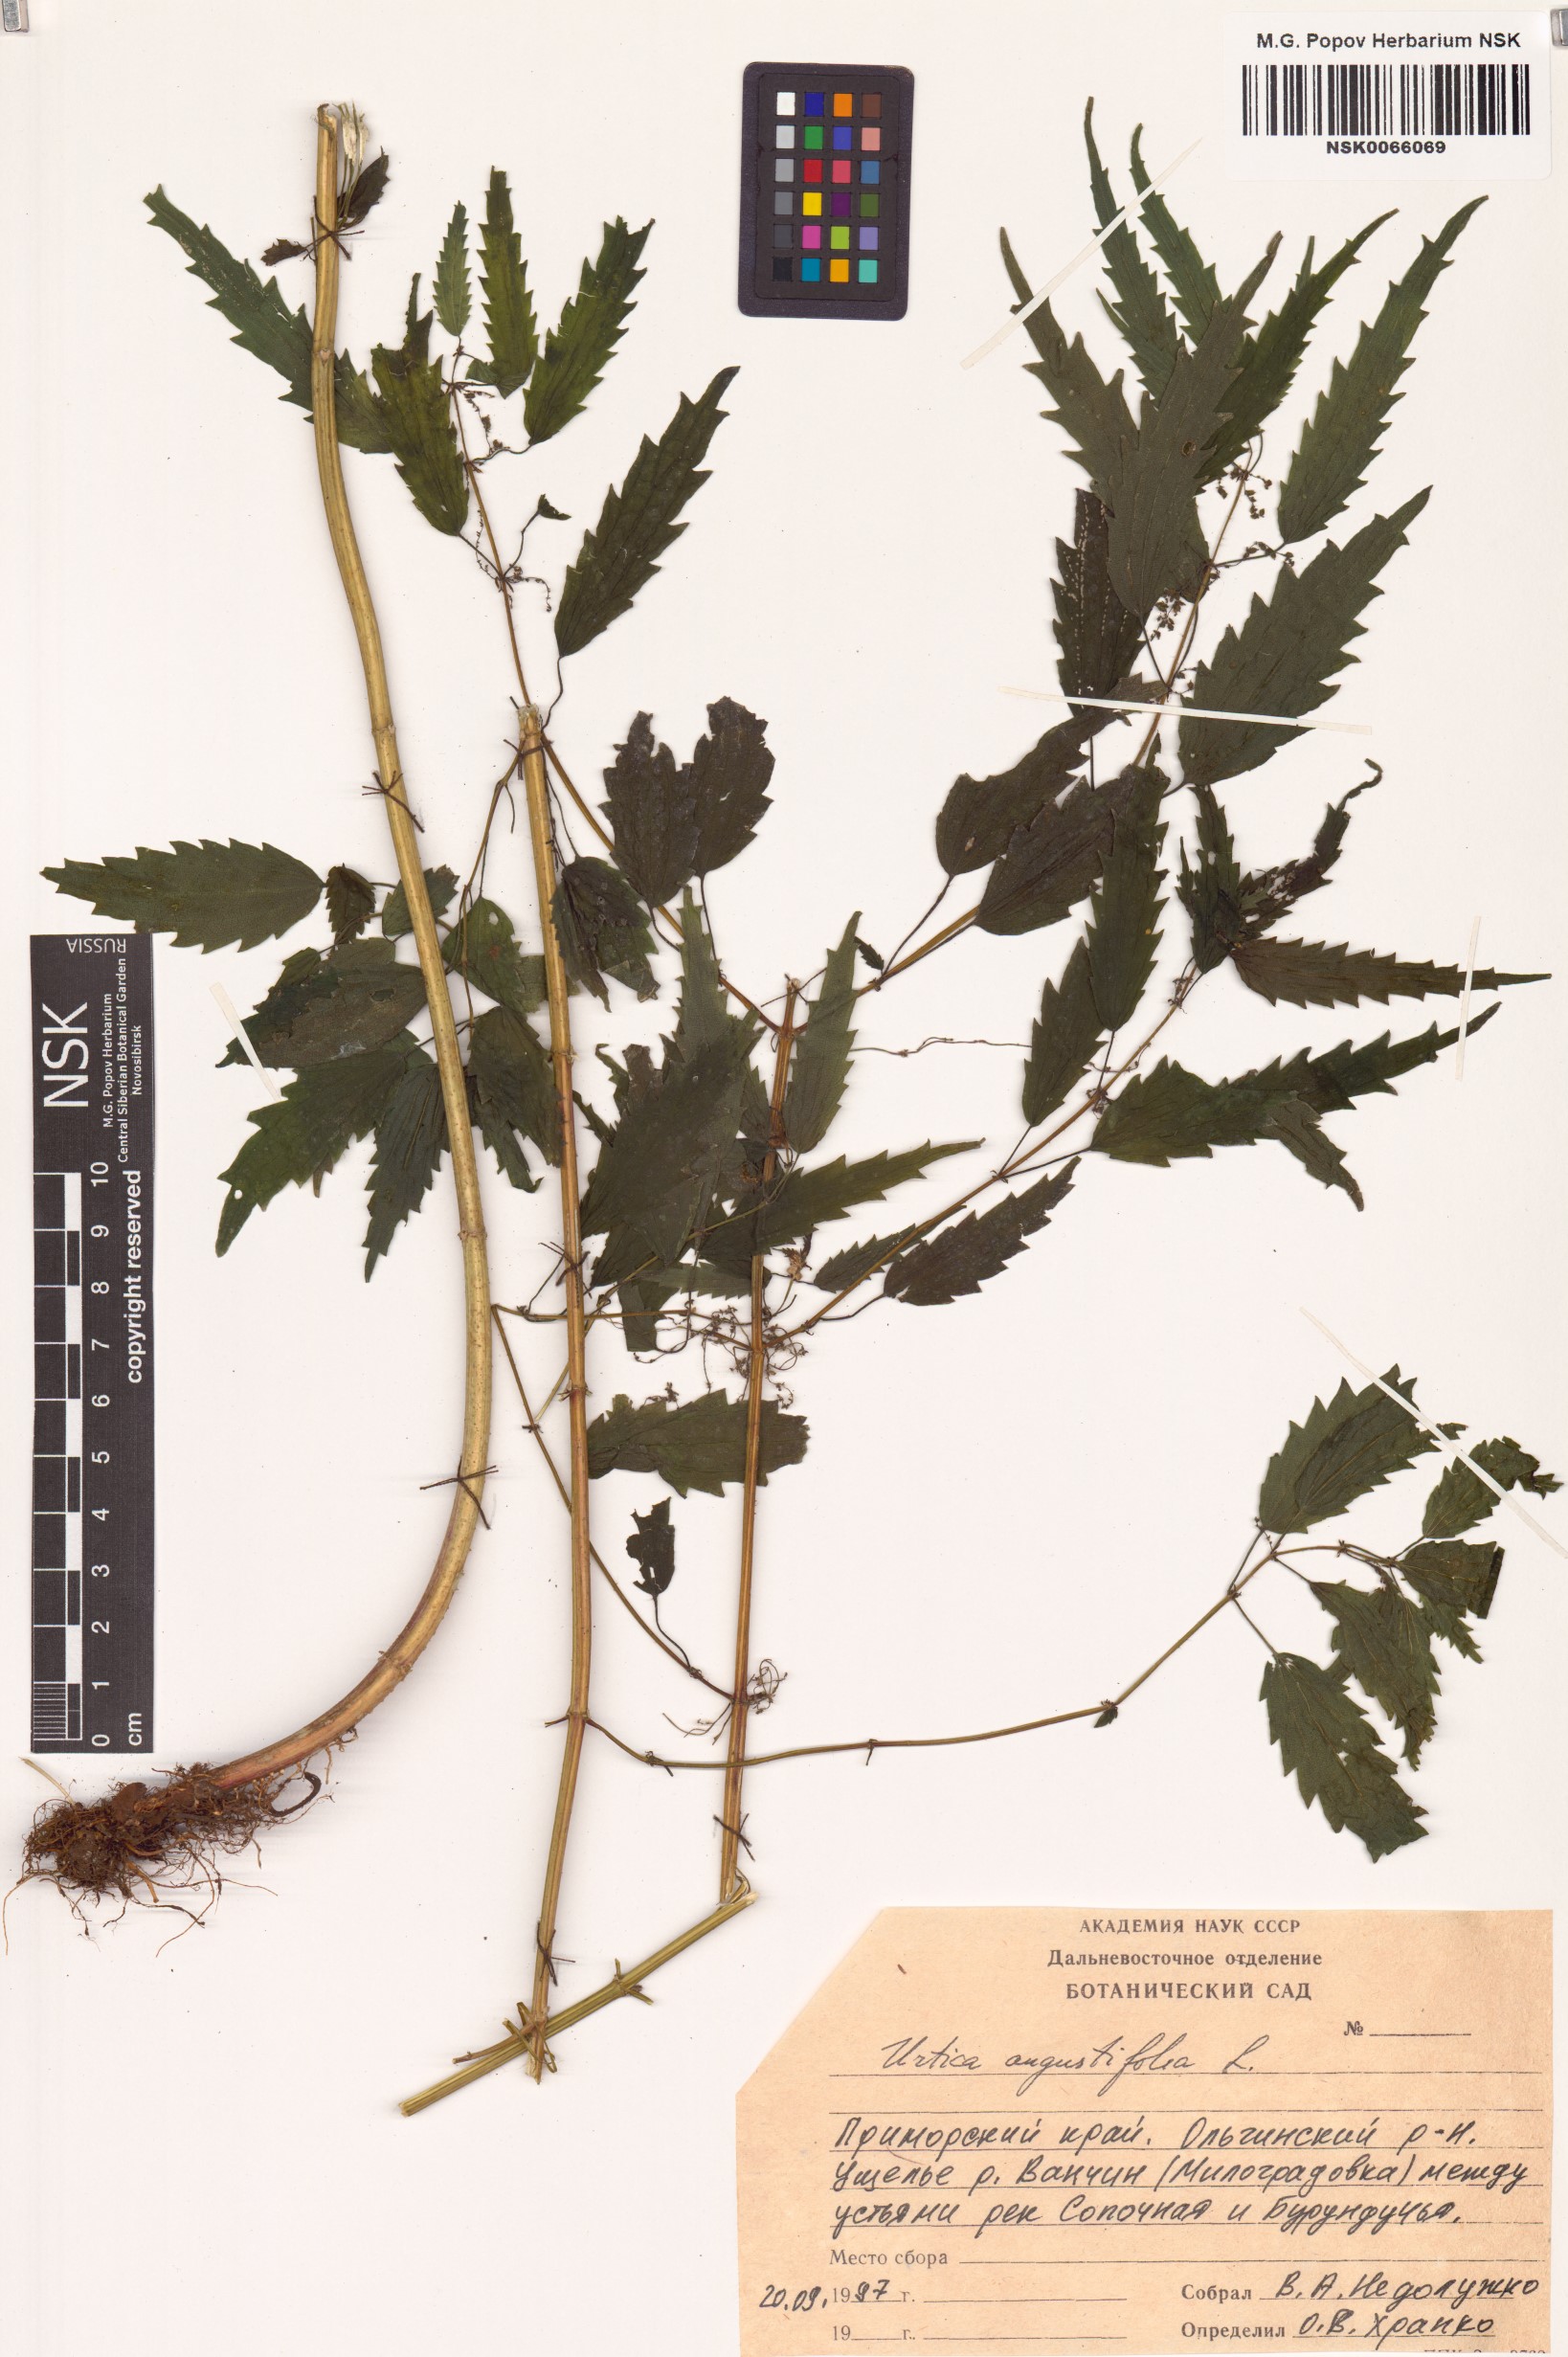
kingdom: Plantae
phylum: Tracheophyta
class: Magnoliopsida
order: Rosales
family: Urticaceae
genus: Urtica
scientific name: Urtica dioica
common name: Common nettle
